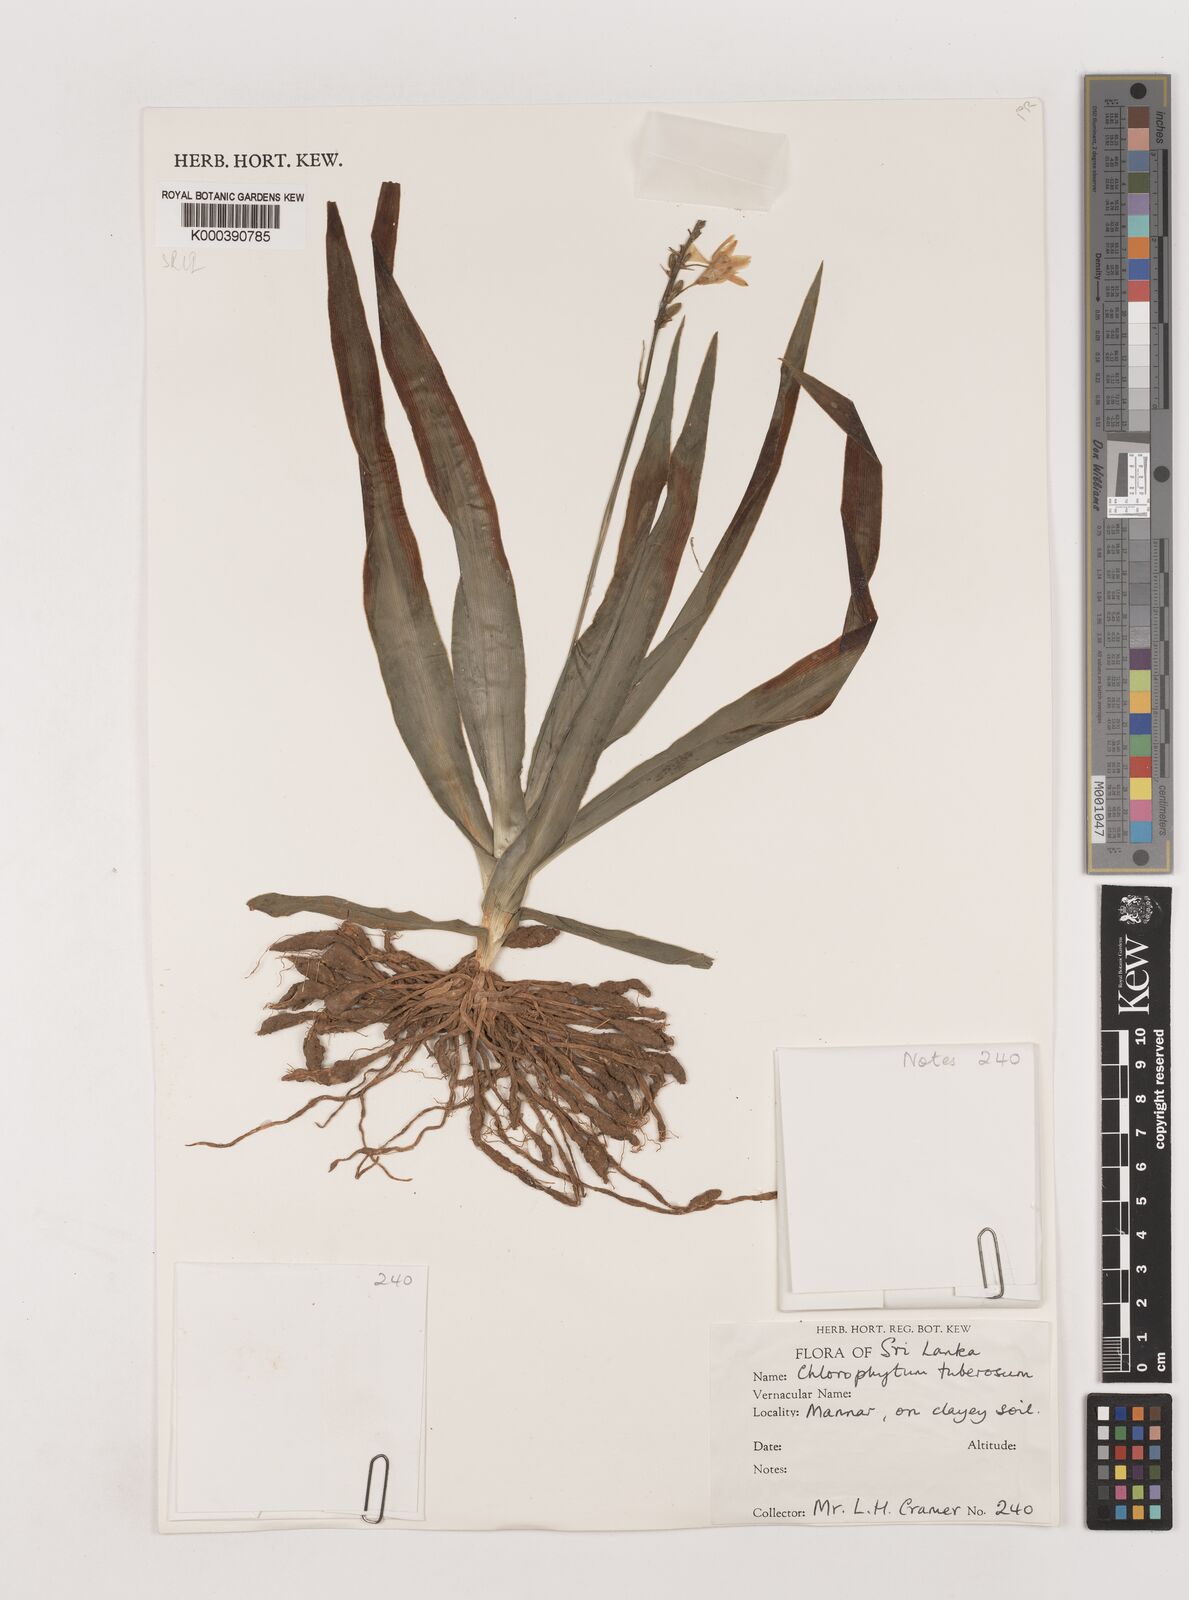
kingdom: Plantae
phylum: Tracheophyta
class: Liliopsida
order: Asparagales
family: Asparagaceae
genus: Chlorophytum
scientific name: Chlorophytum tuberosum
